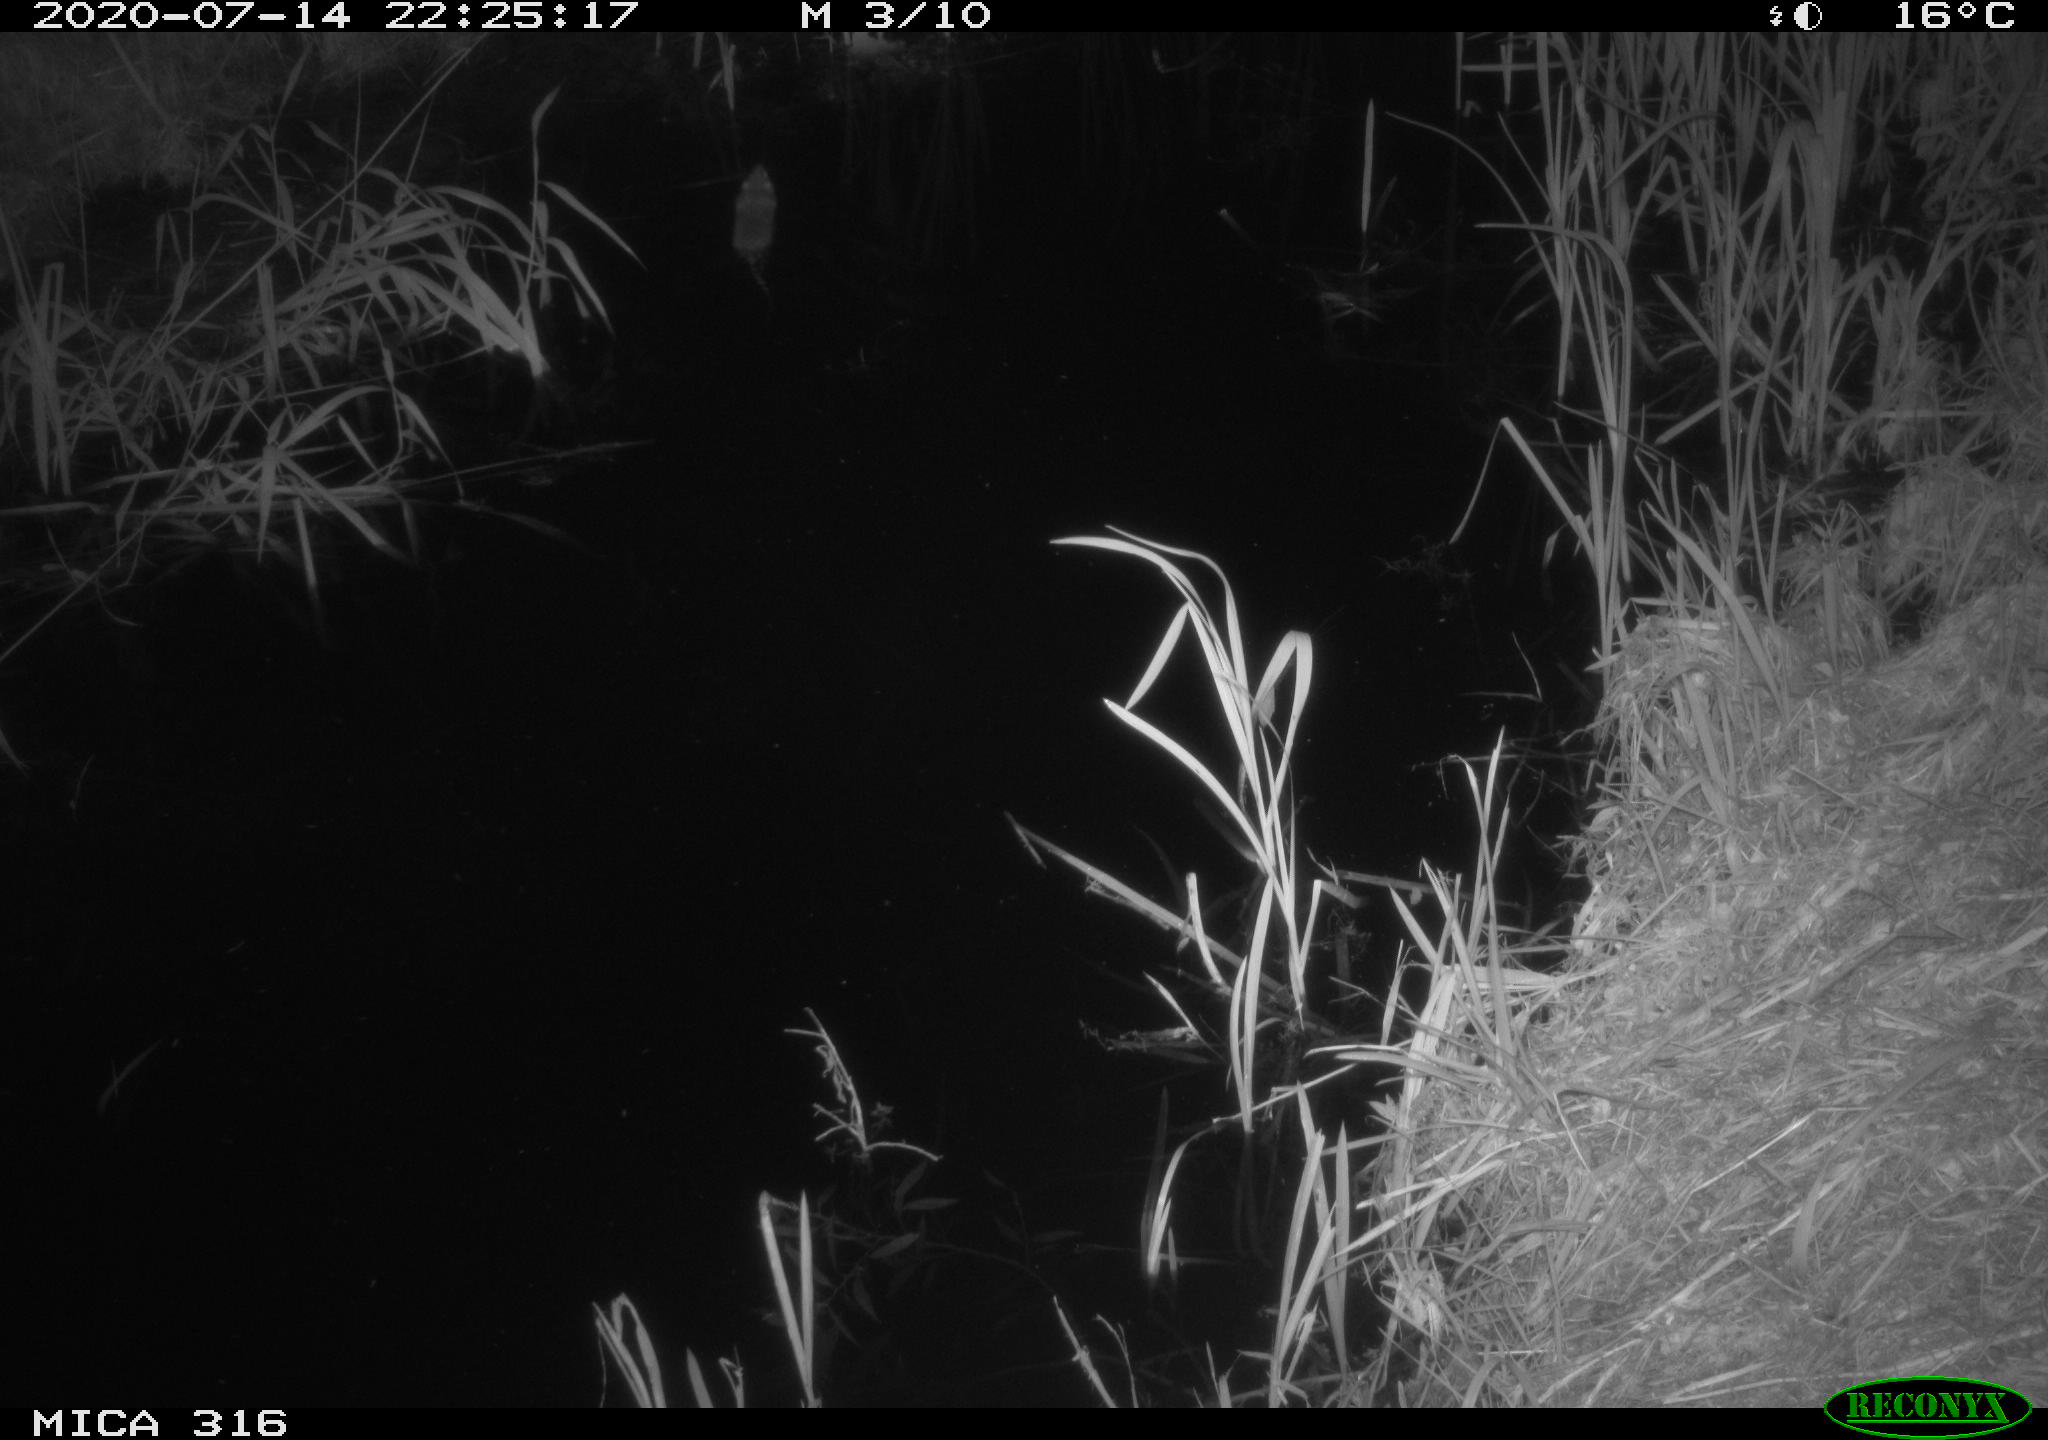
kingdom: Animalia
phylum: Chordata
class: Aves
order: Anseriformes
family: Anatidae
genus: Anas
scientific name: Anas platyrhynchos
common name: Mallard
